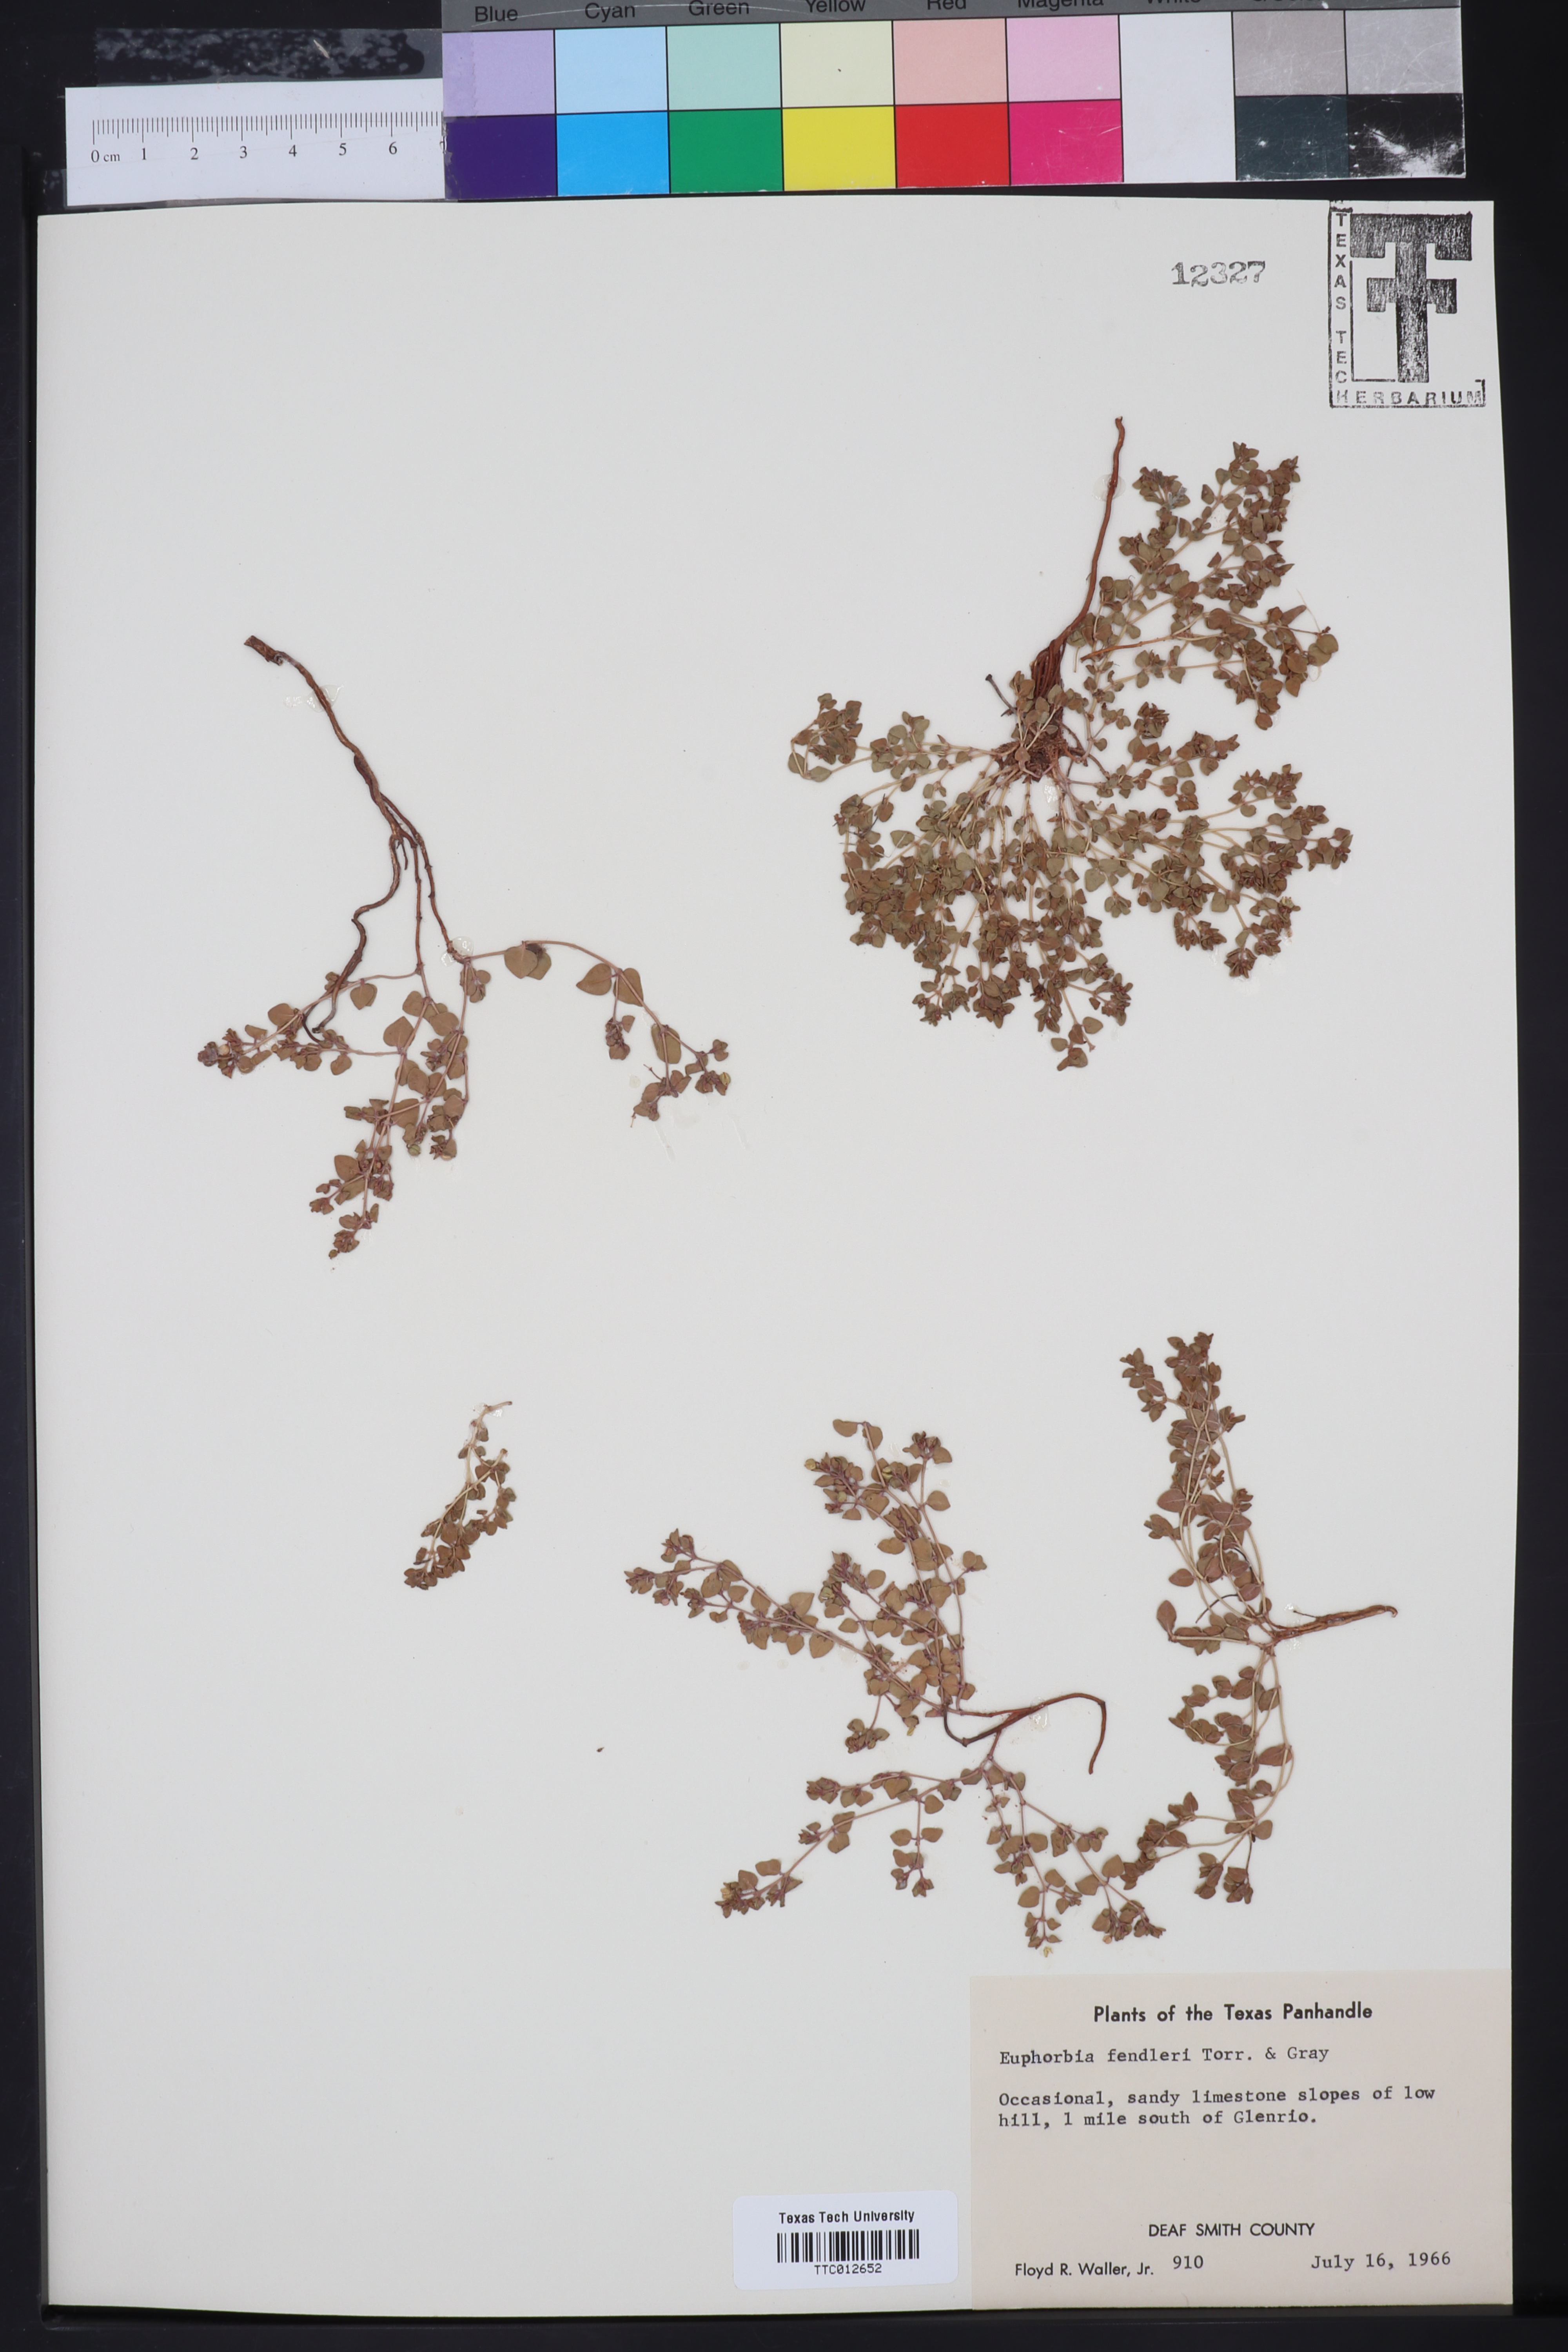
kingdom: Plantae
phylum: Tracheophyta
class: Magnoliopsida
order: Malpighiales
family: Euphorbiaceae
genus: Euphorbia
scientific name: Euphorbia fendleri
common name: Fendler's euphorbia
